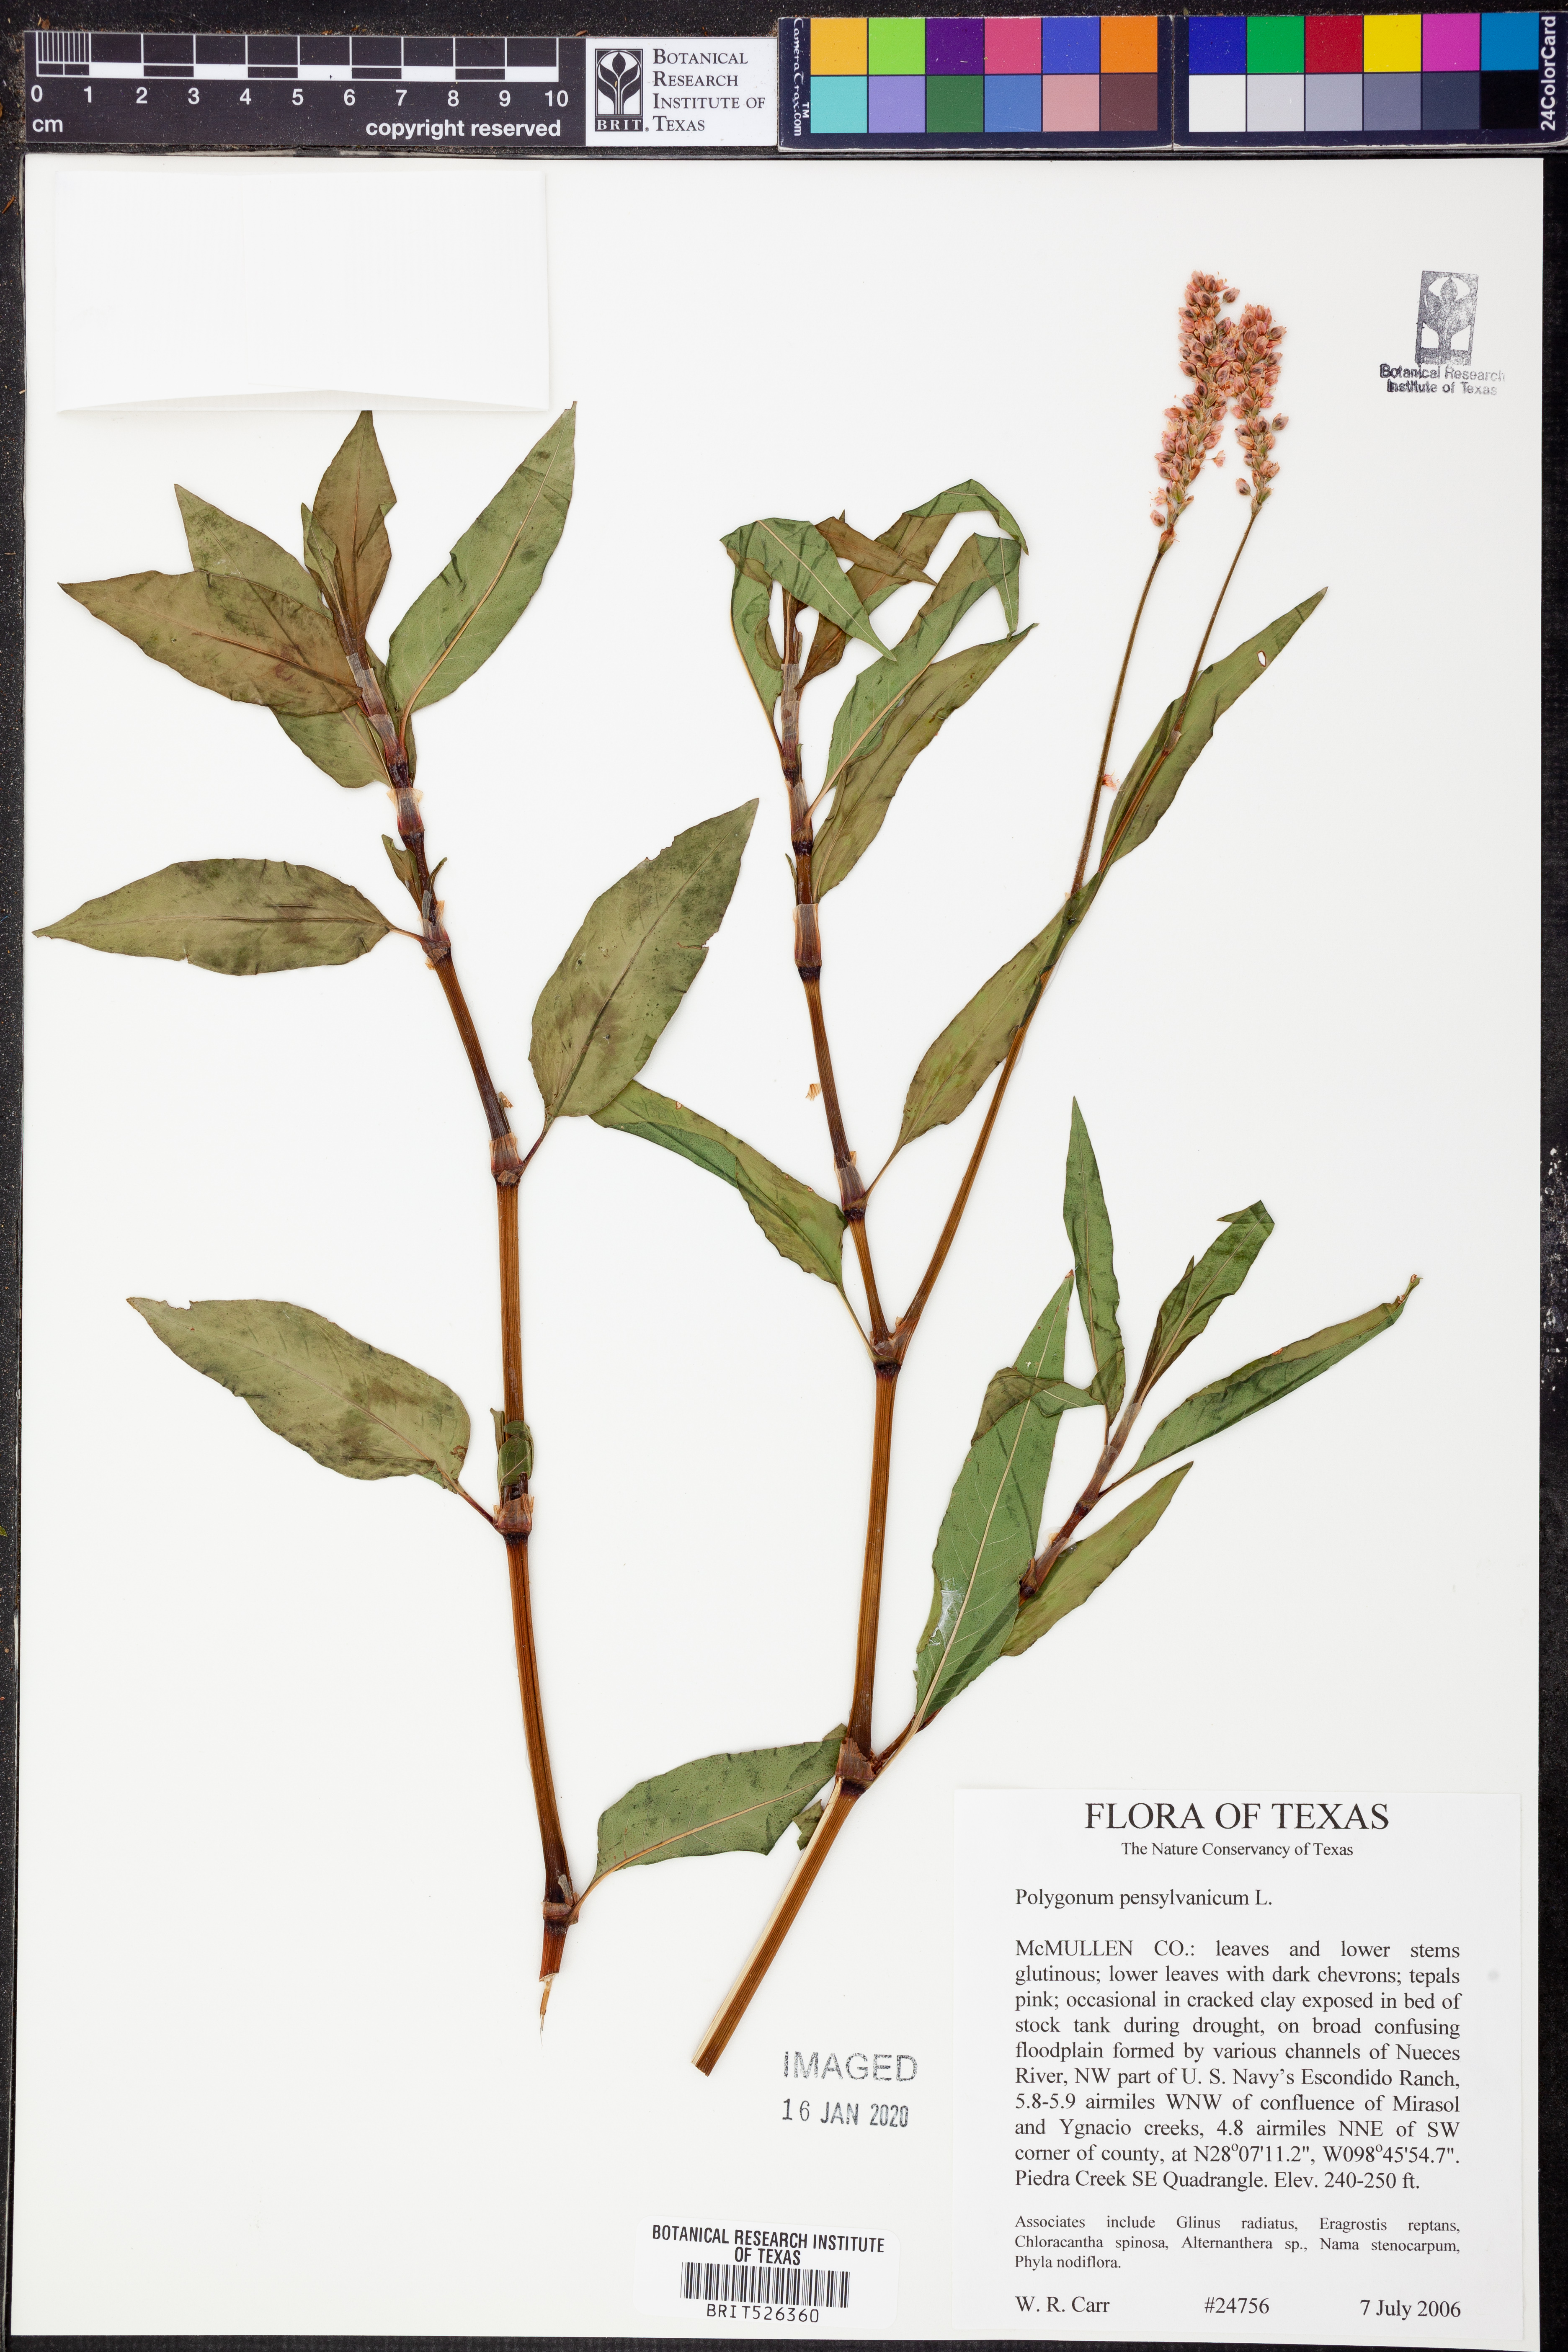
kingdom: Plantae
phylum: Tracheophyta
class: Magnoliopsida
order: Caryophyllales
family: Polygonaceae
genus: Persicaria
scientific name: Persicaria pensylvanica
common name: Pinkweed
